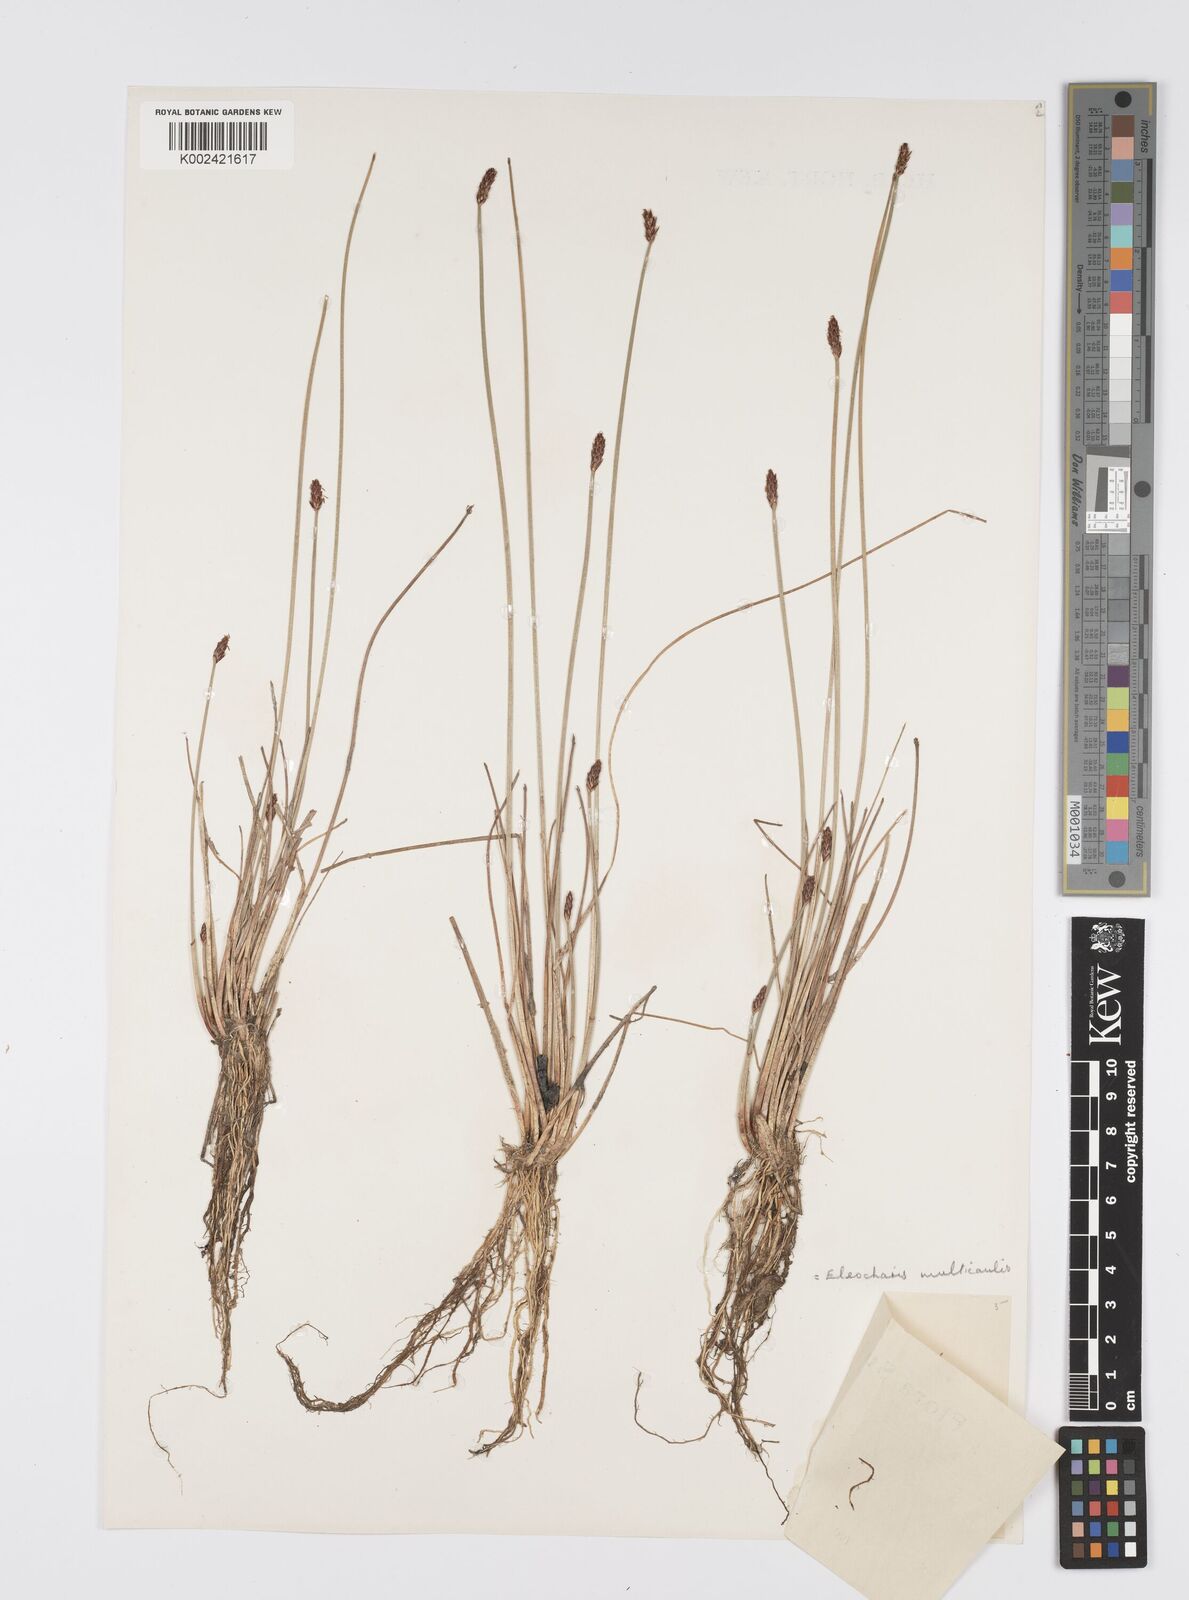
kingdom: Plantae
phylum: Tracheophyta
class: Liliopsida
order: Poales
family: Cyperaceae
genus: Eleocharis
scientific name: Eleocharis multicaulis
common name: Many-stalked spike-rush
